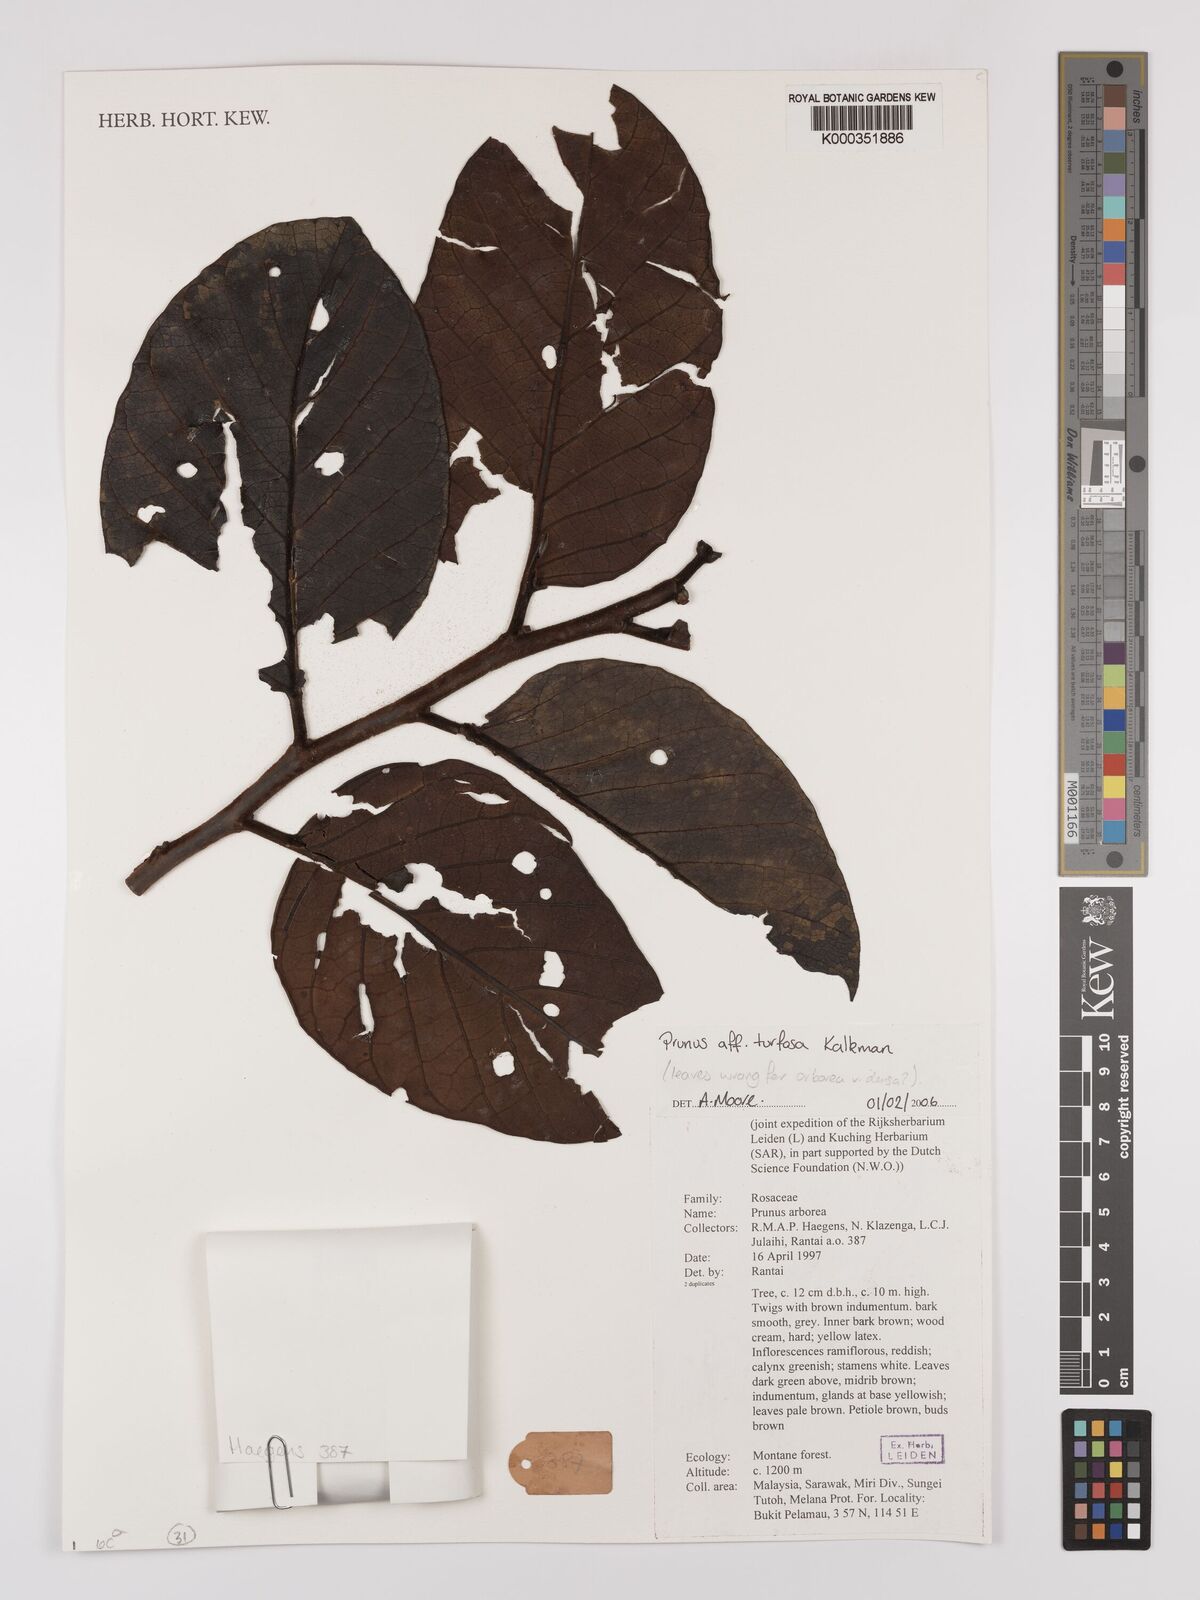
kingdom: Plantae
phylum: Tracheophyta
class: Magnoliopsida
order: Rosales
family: Rosaceae
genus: Prunus
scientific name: Prunus turfosa
